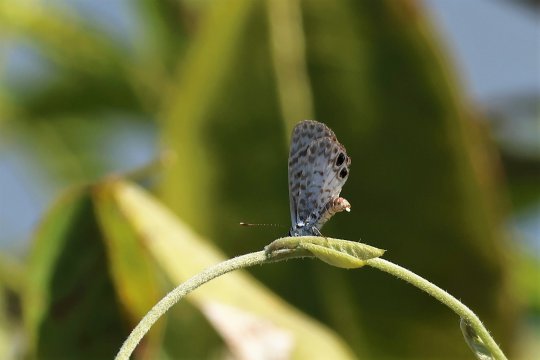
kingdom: Animalia
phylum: Arthropoda
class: Insecta
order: Lepidoptera
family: Lycaenidae
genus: Leptotes
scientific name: Leptotes cassius
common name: Cassius Blue
